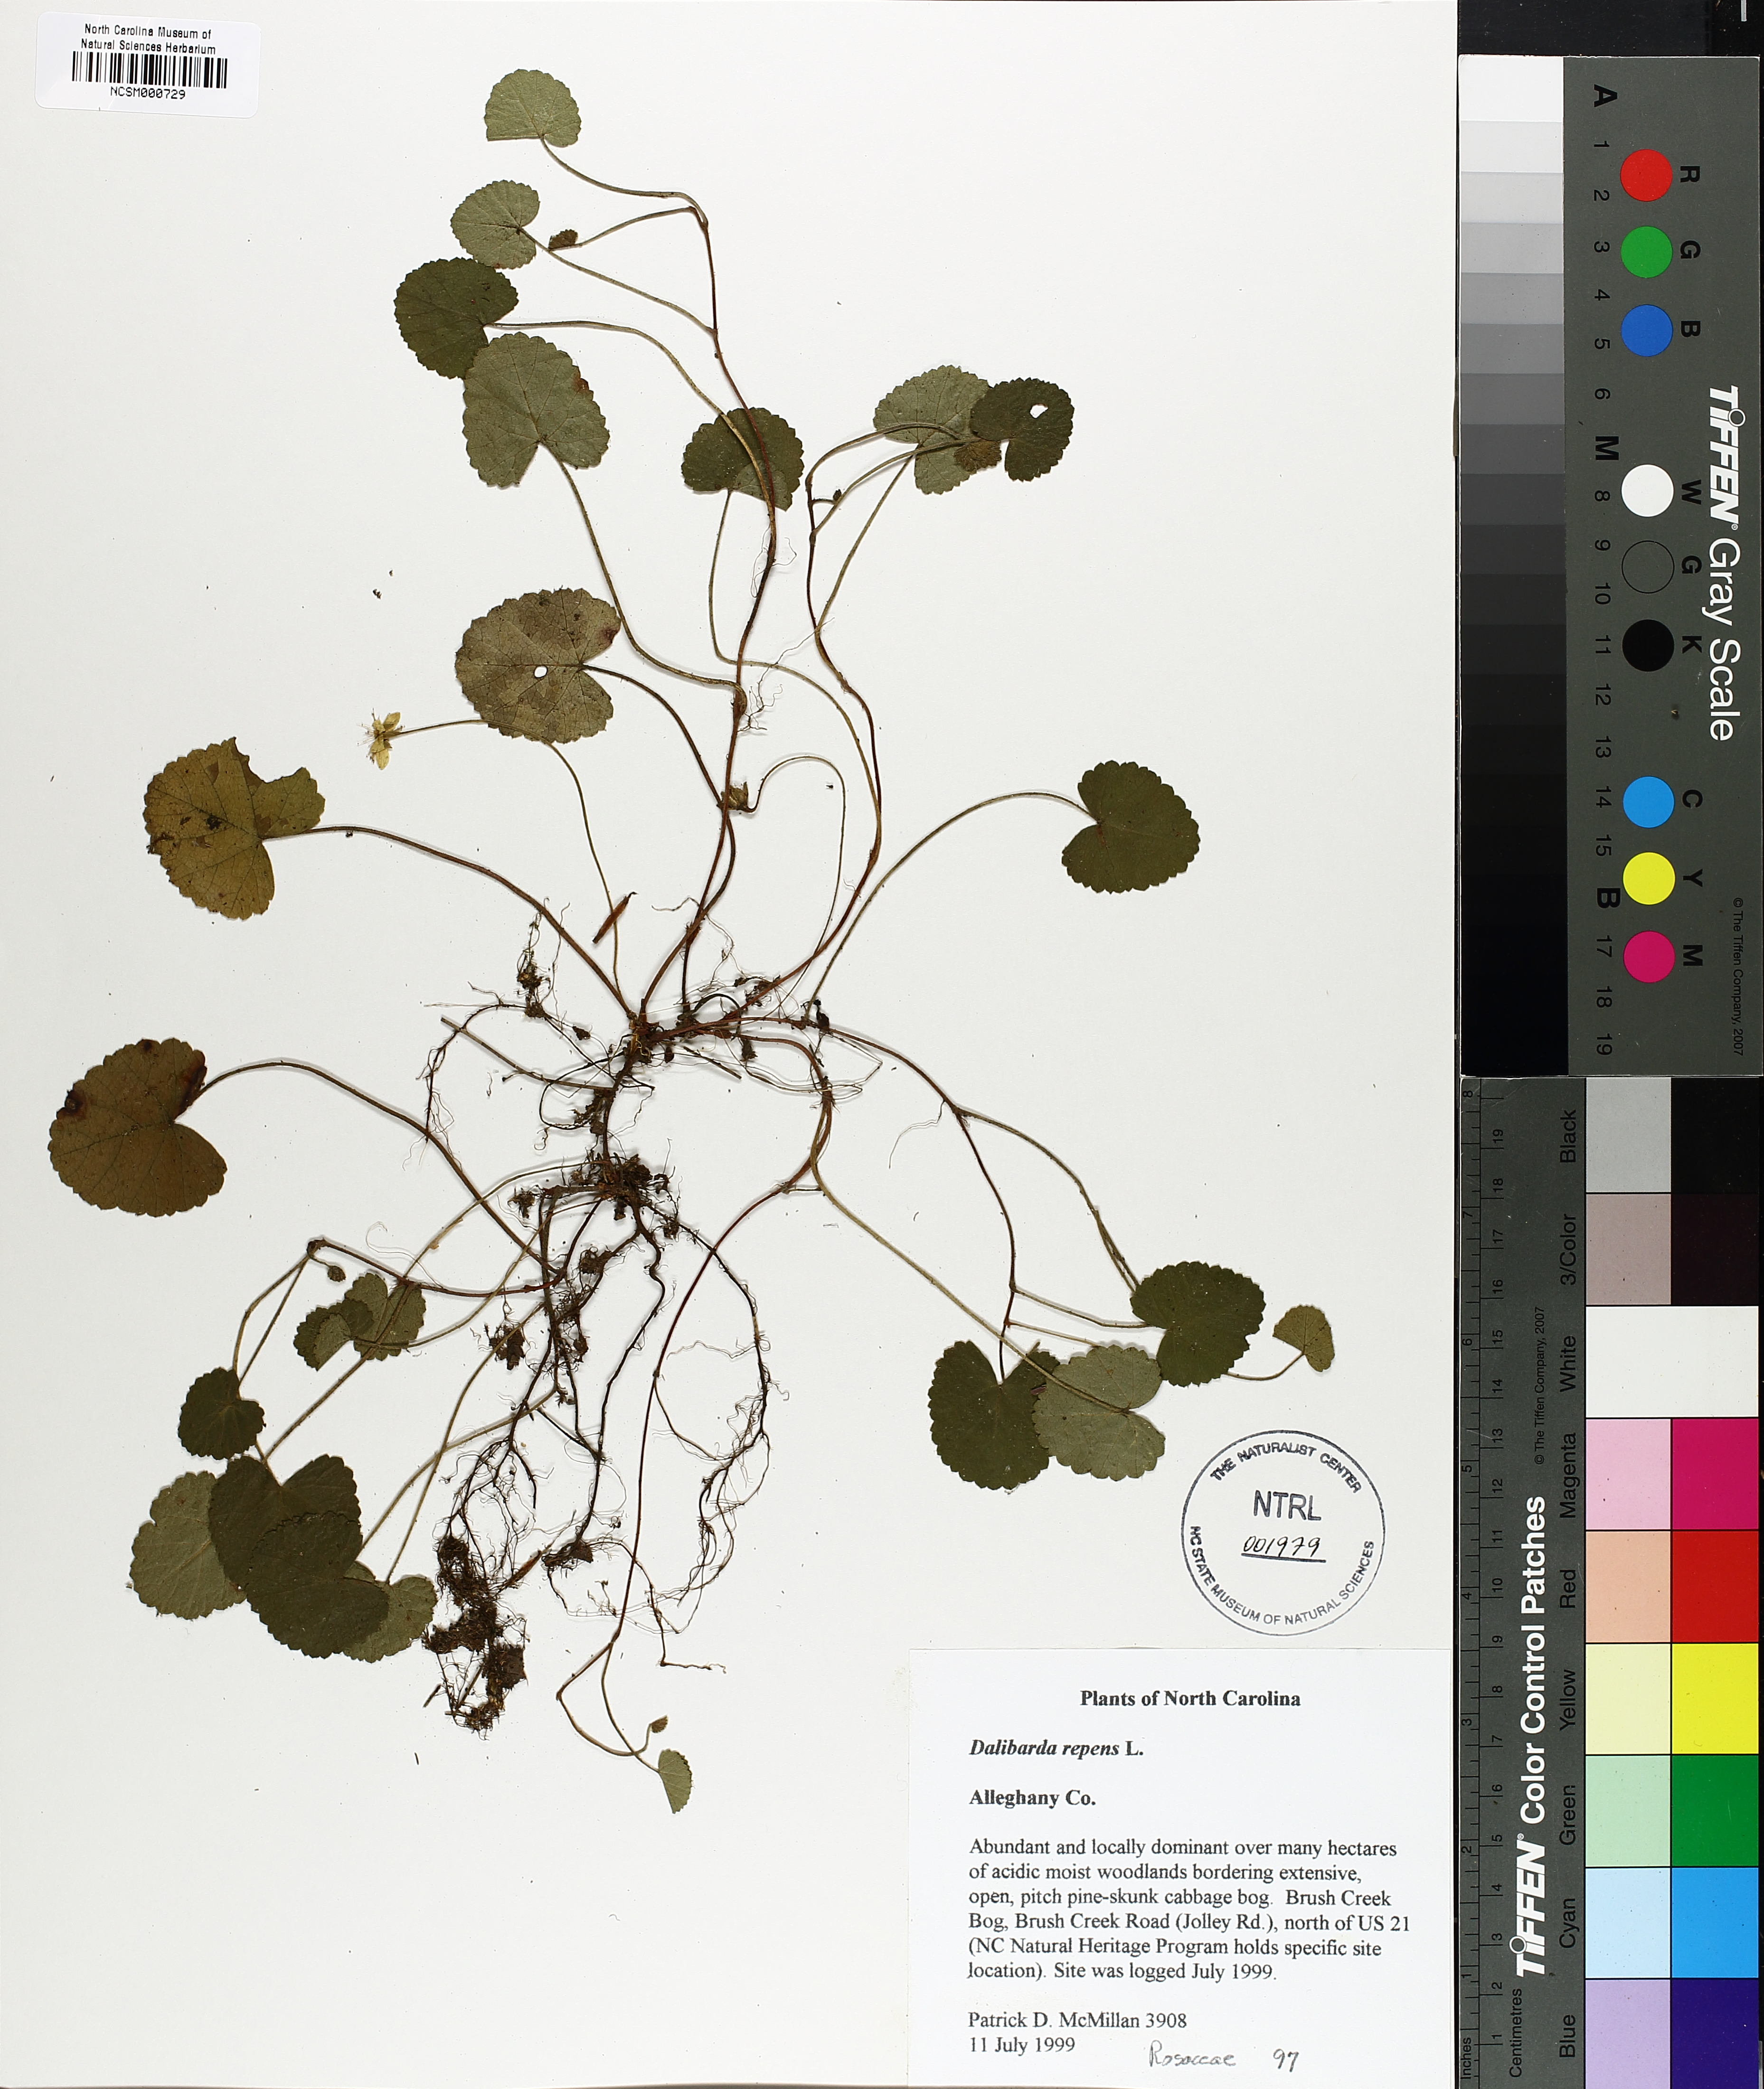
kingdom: Plantae
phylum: Tracheophyta
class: Magnoliopsida
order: Rosales
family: Rosaceae
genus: Dalibarda
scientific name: Dalibarda repens
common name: Dewdrop
